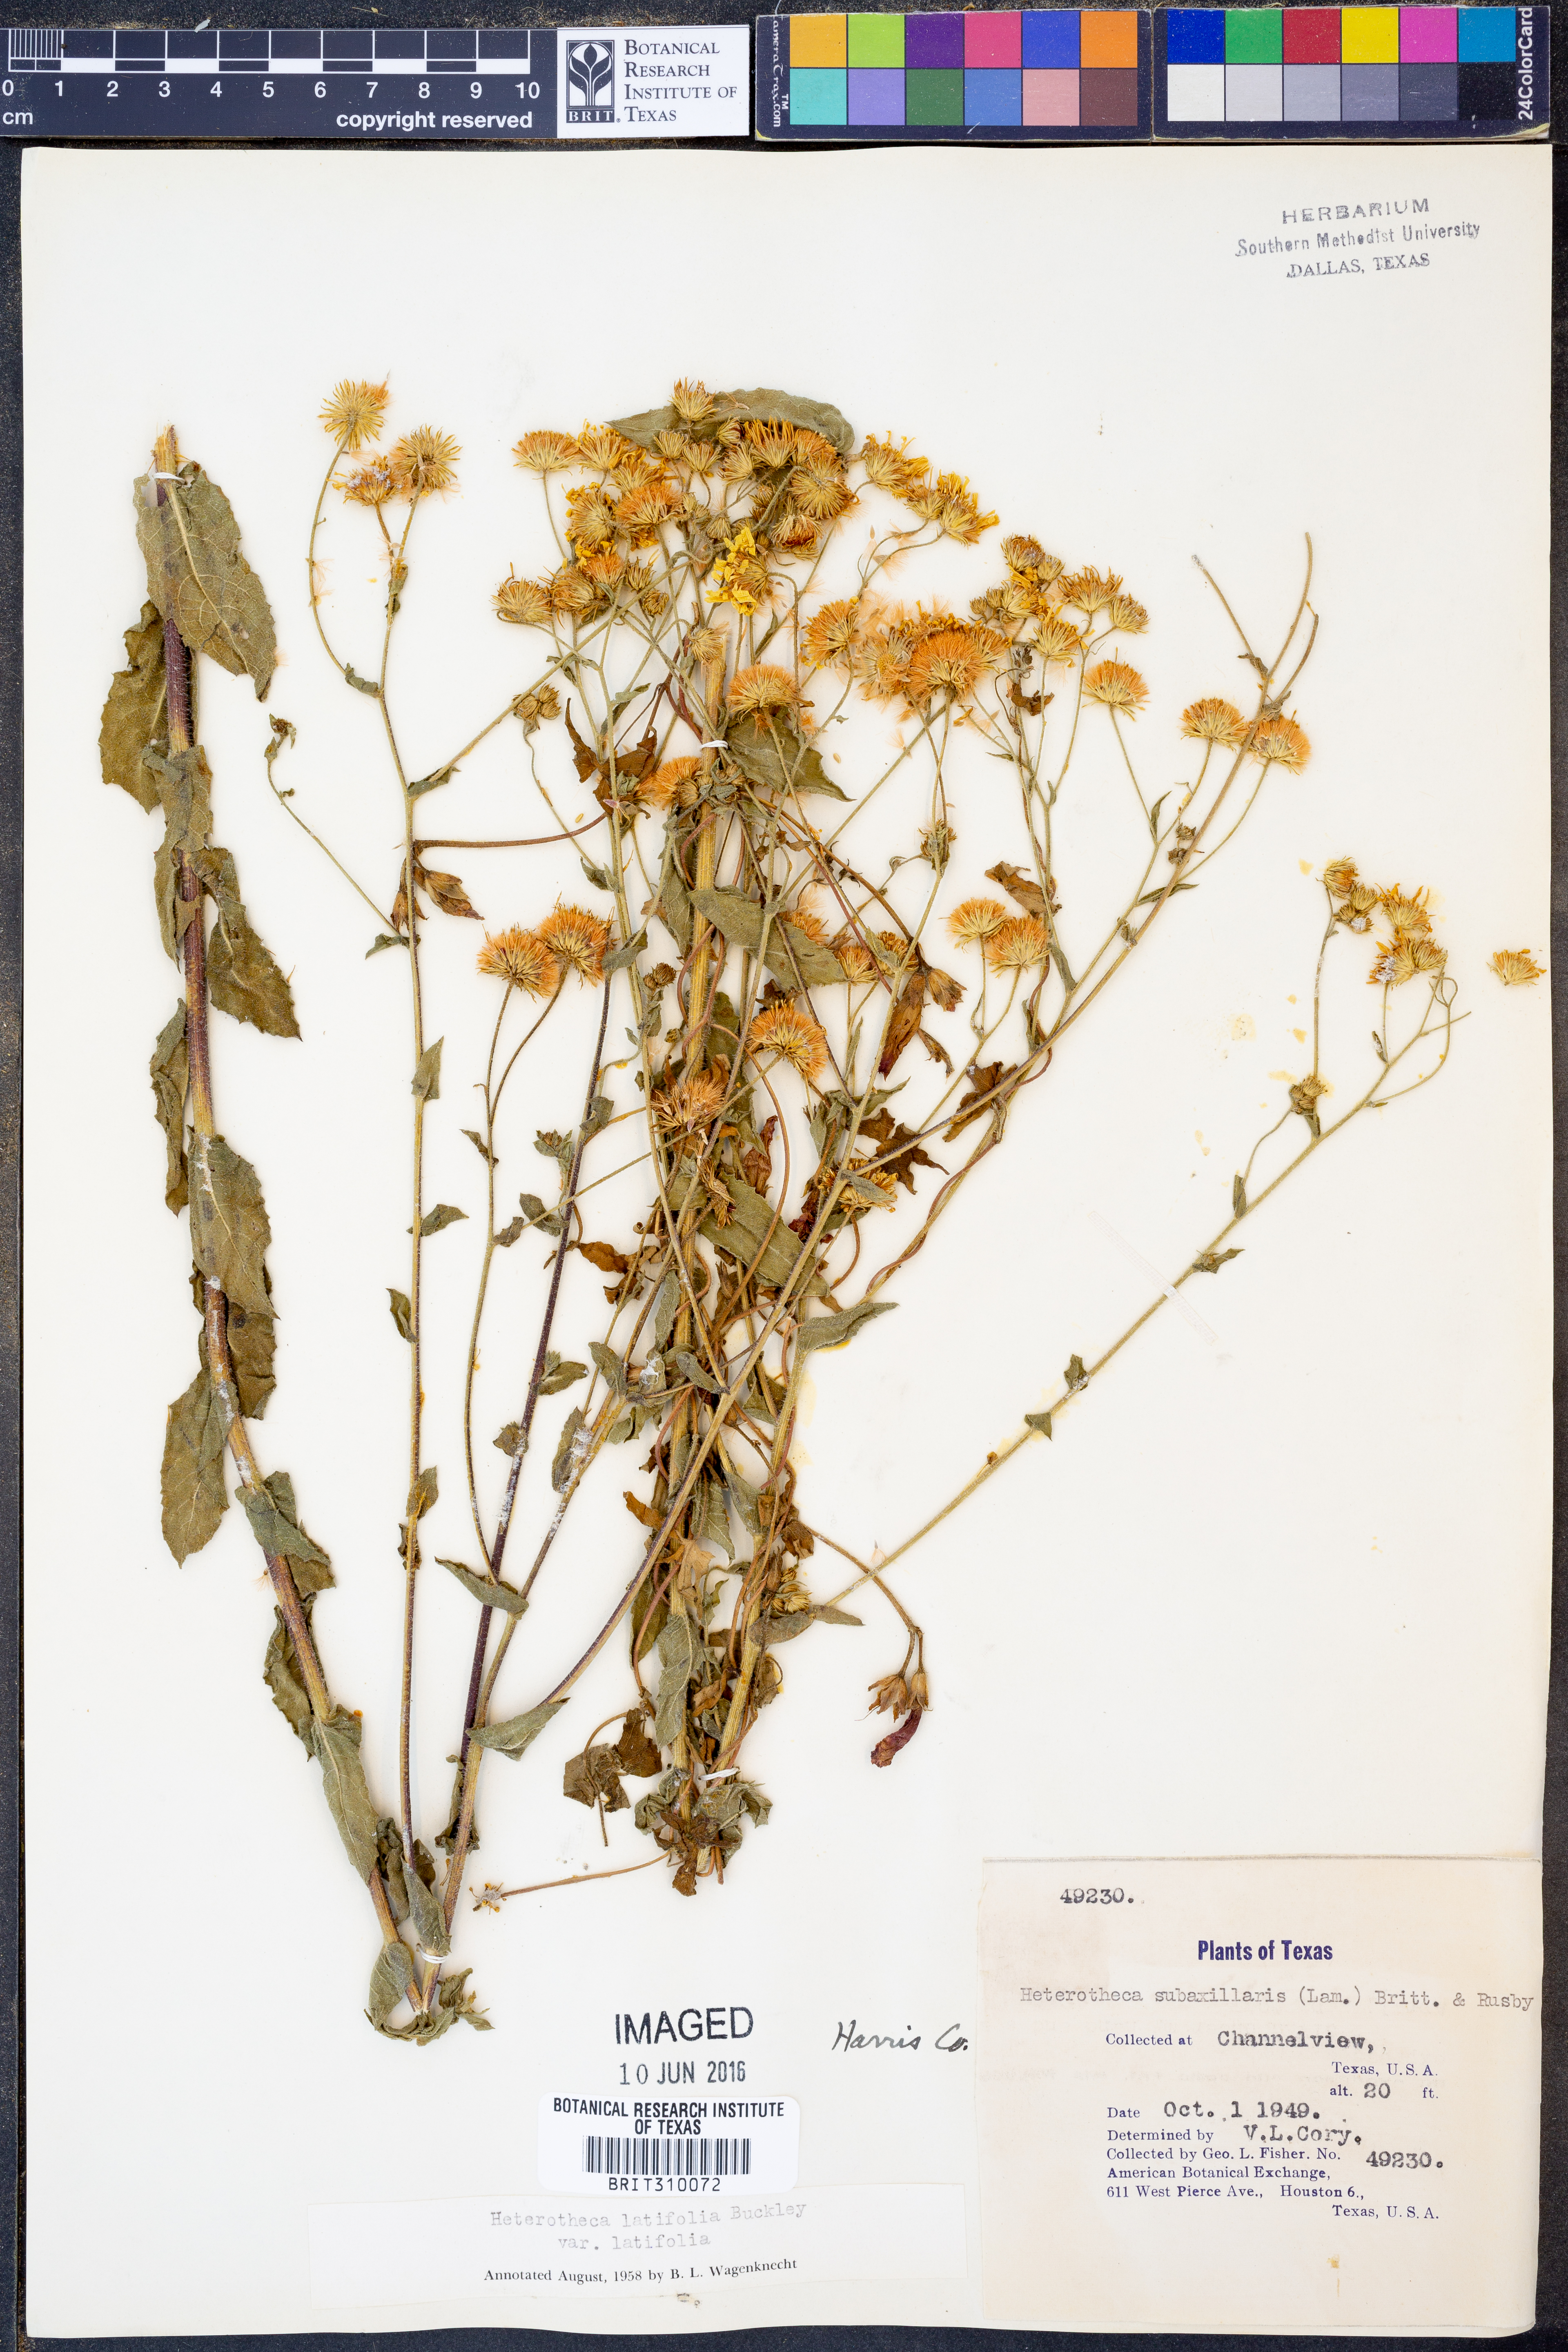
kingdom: Plantae
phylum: Tracheophyta
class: Magnoliopsida
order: Asterales
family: Asteraceae
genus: Heterotheca
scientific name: Heterotheca subaxillaris
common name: Camphorweed
